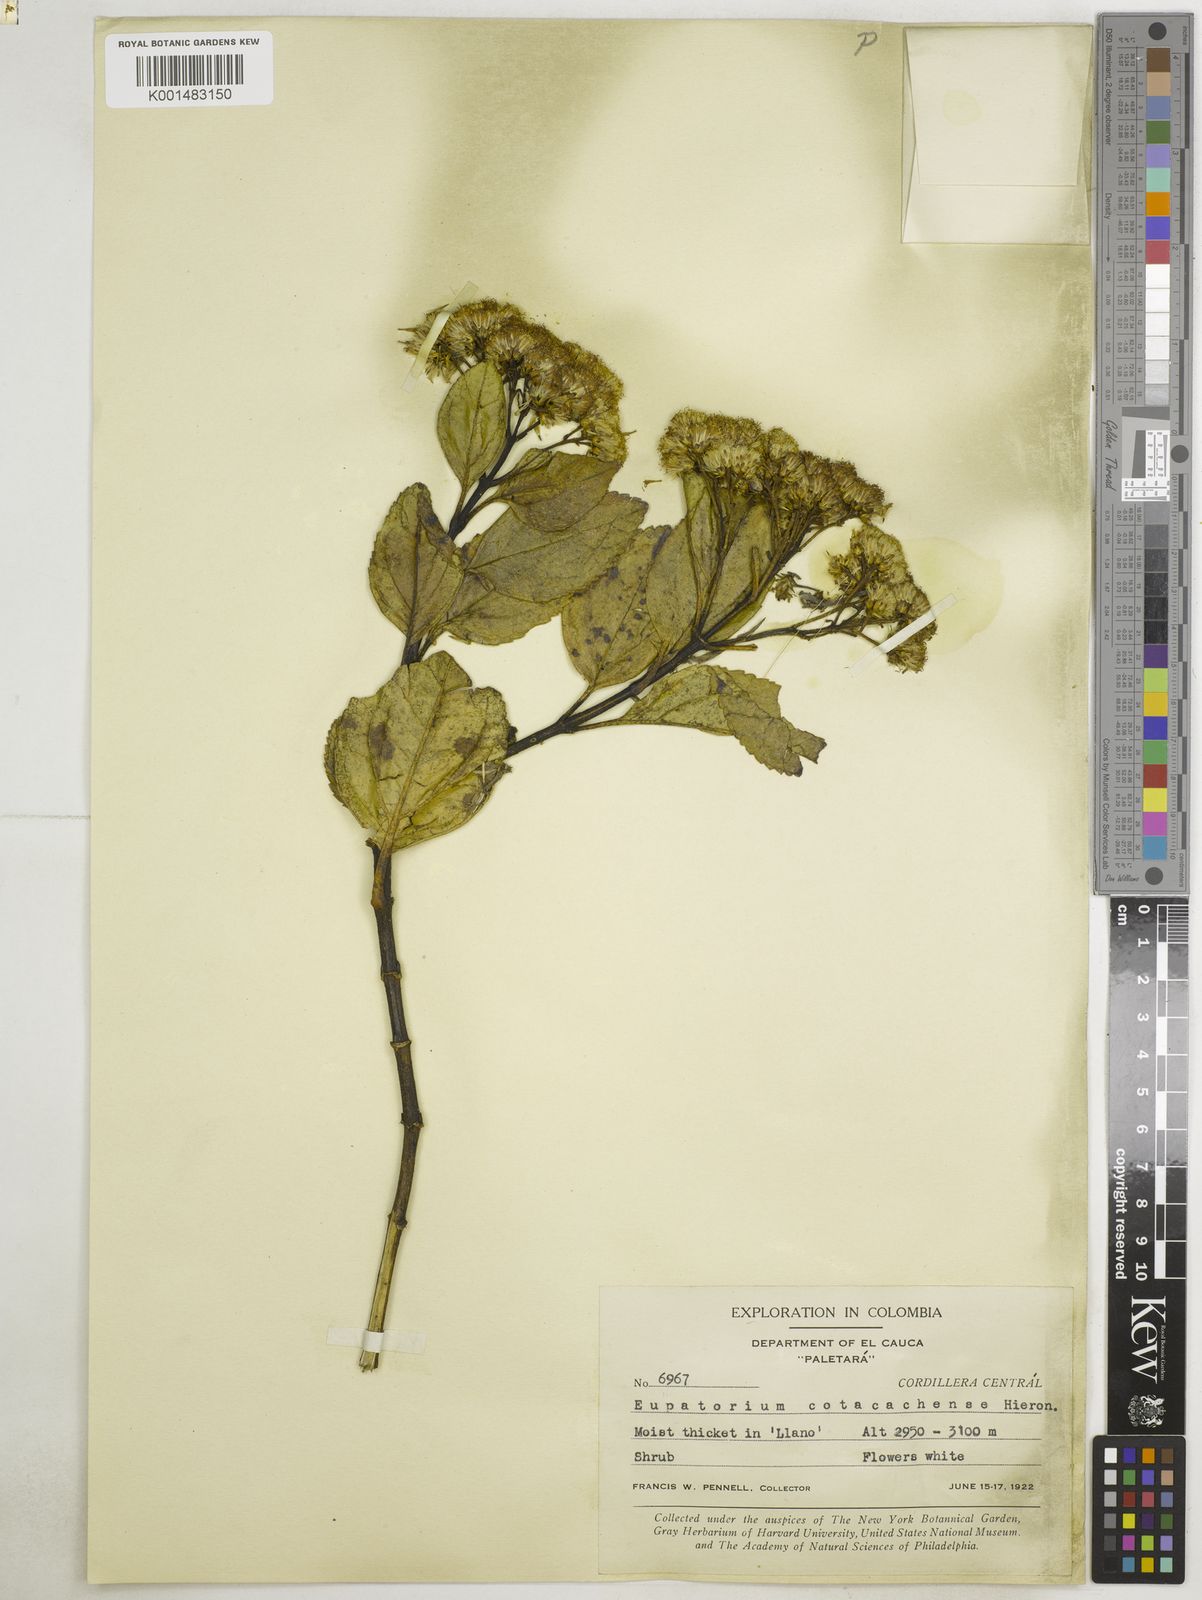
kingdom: Plantae
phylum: Tracheophyta
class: Magnoliopsida
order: Asterales
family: Asteraceae
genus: Ageratina
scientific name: Ageratina pseudochilca
